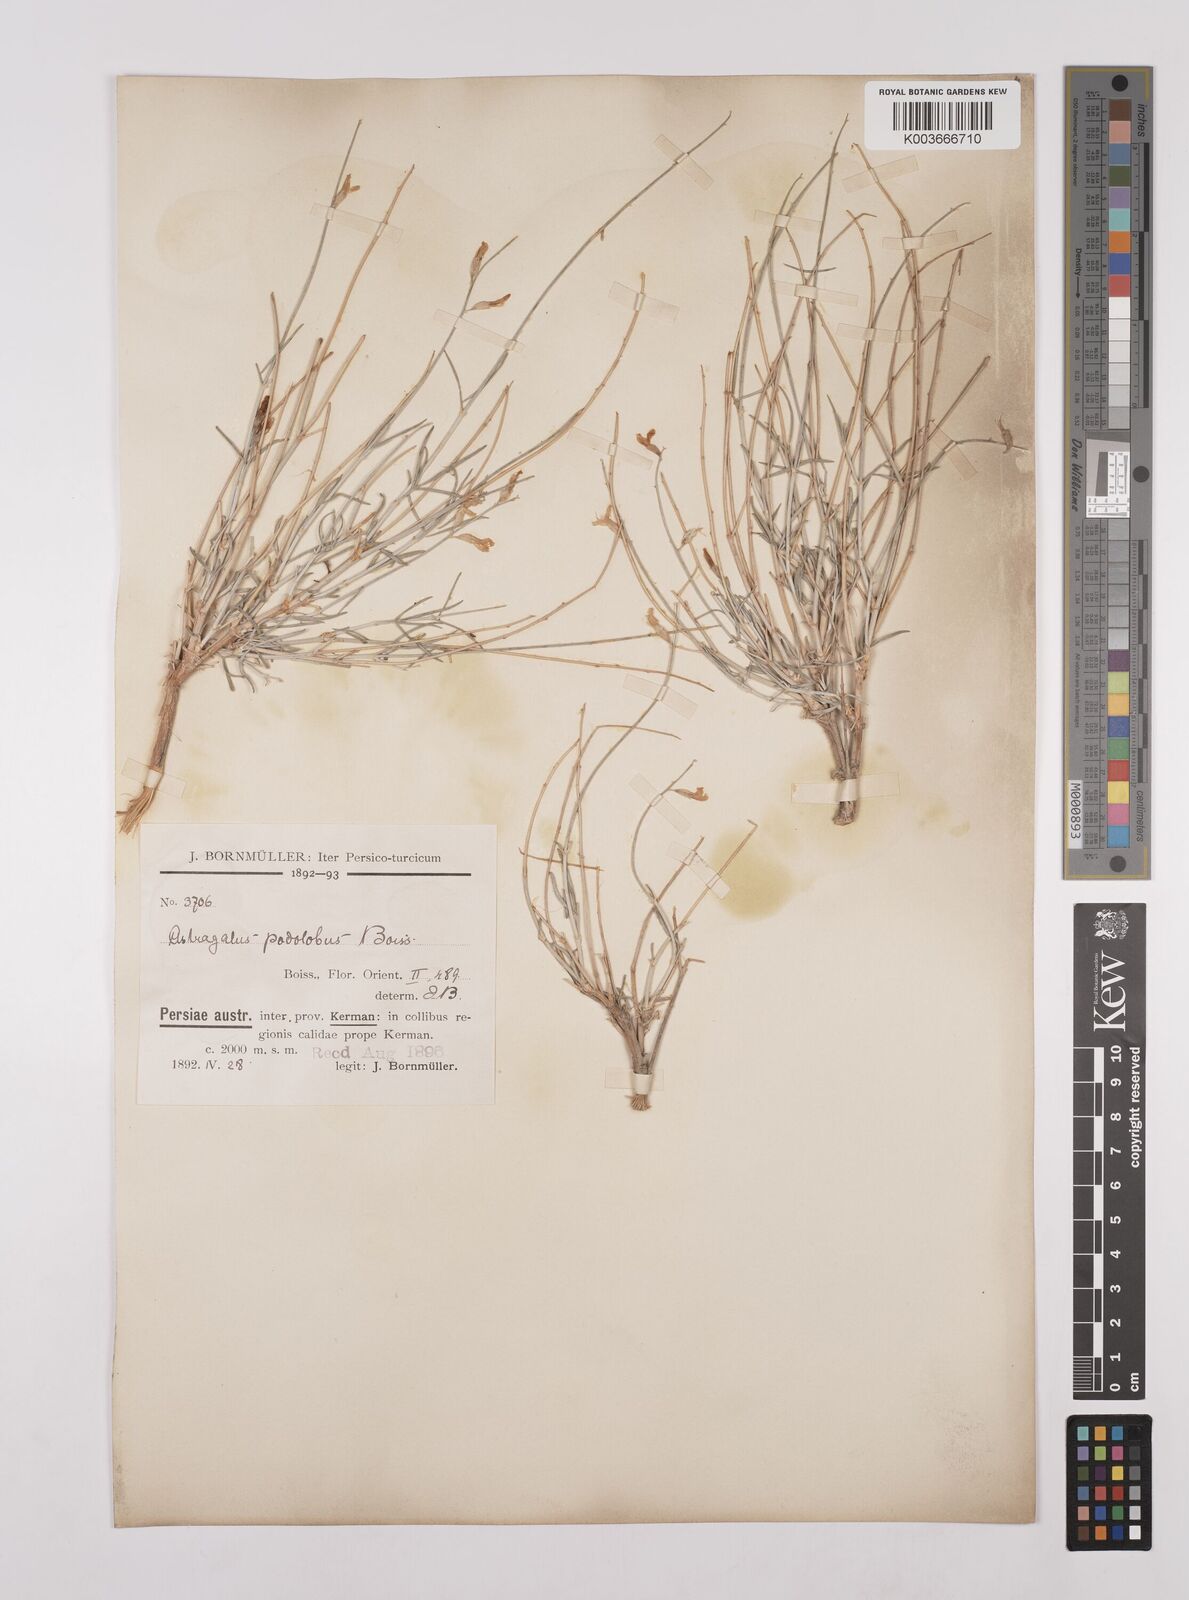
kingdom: Plantae
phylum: Tracheophyta
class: Magnoliopsida
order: Fabales
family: Fabaceae
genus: Astragalus
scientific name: Astragalus podolobus
